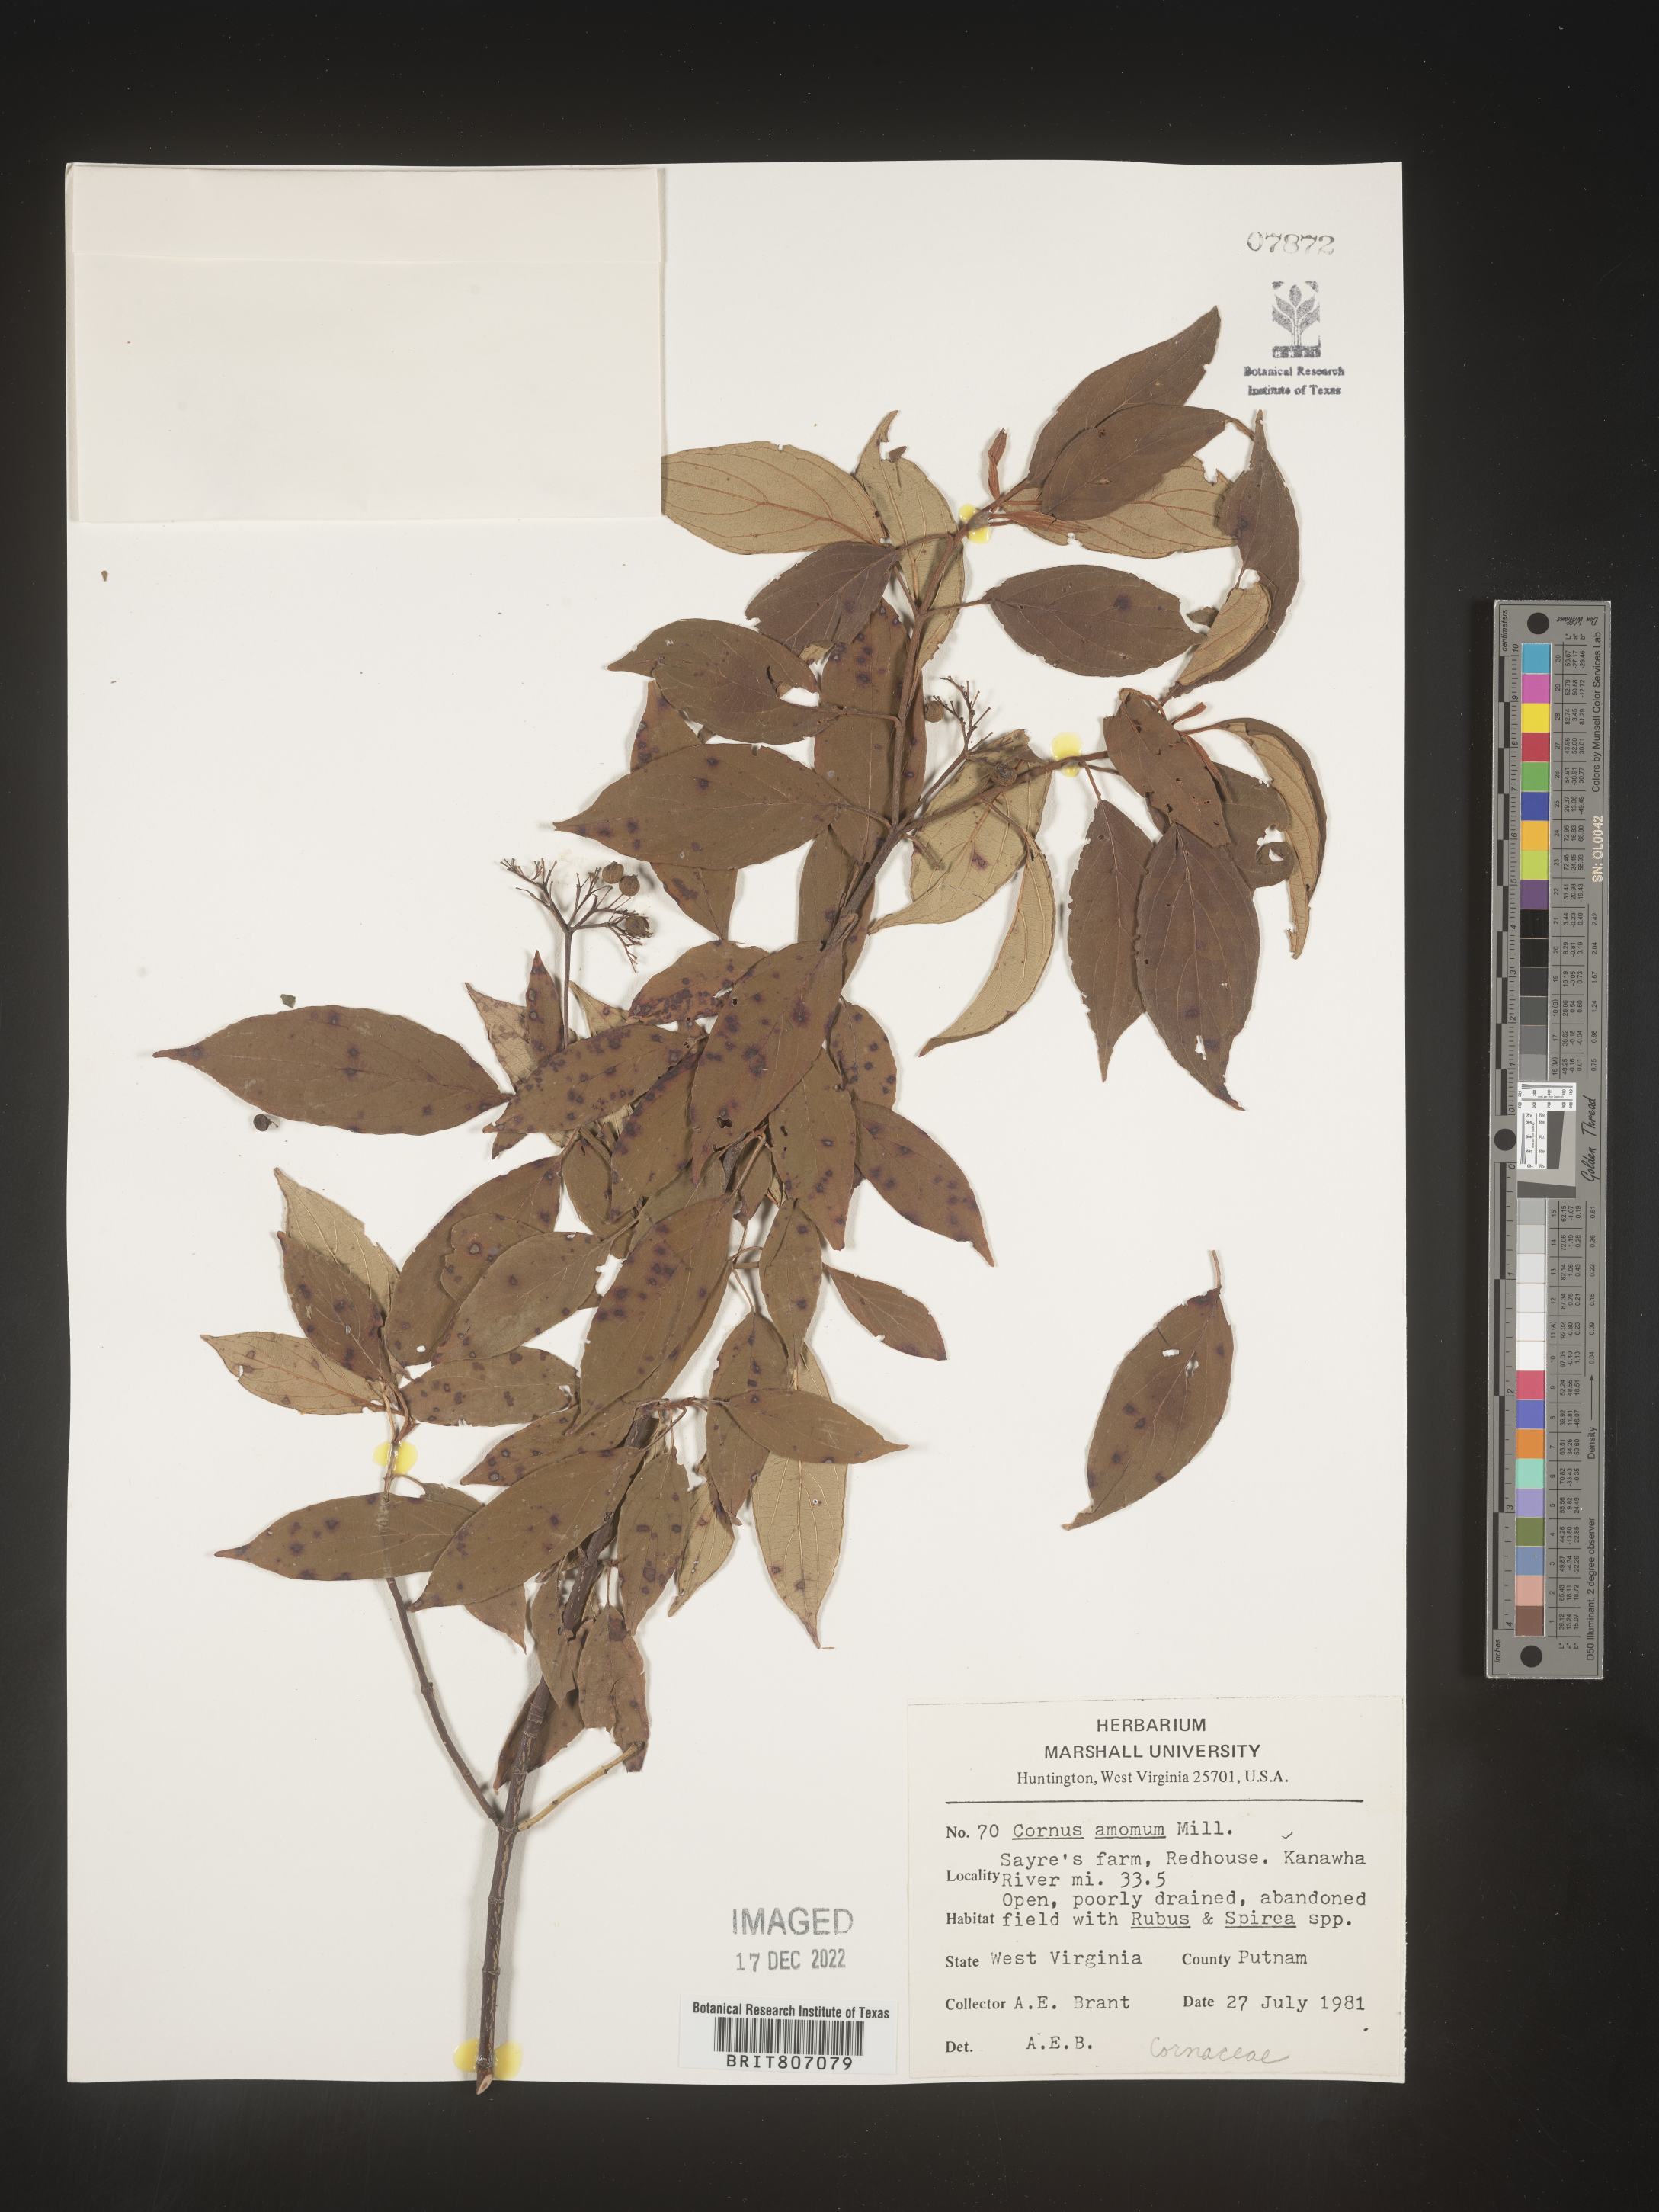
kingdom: Plantae
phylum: Tracheophyta
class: Magnoliopsida
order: Cornales
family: Cornaceae
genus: Cornus
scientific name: Cornus amomum
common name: Silky dogwood
